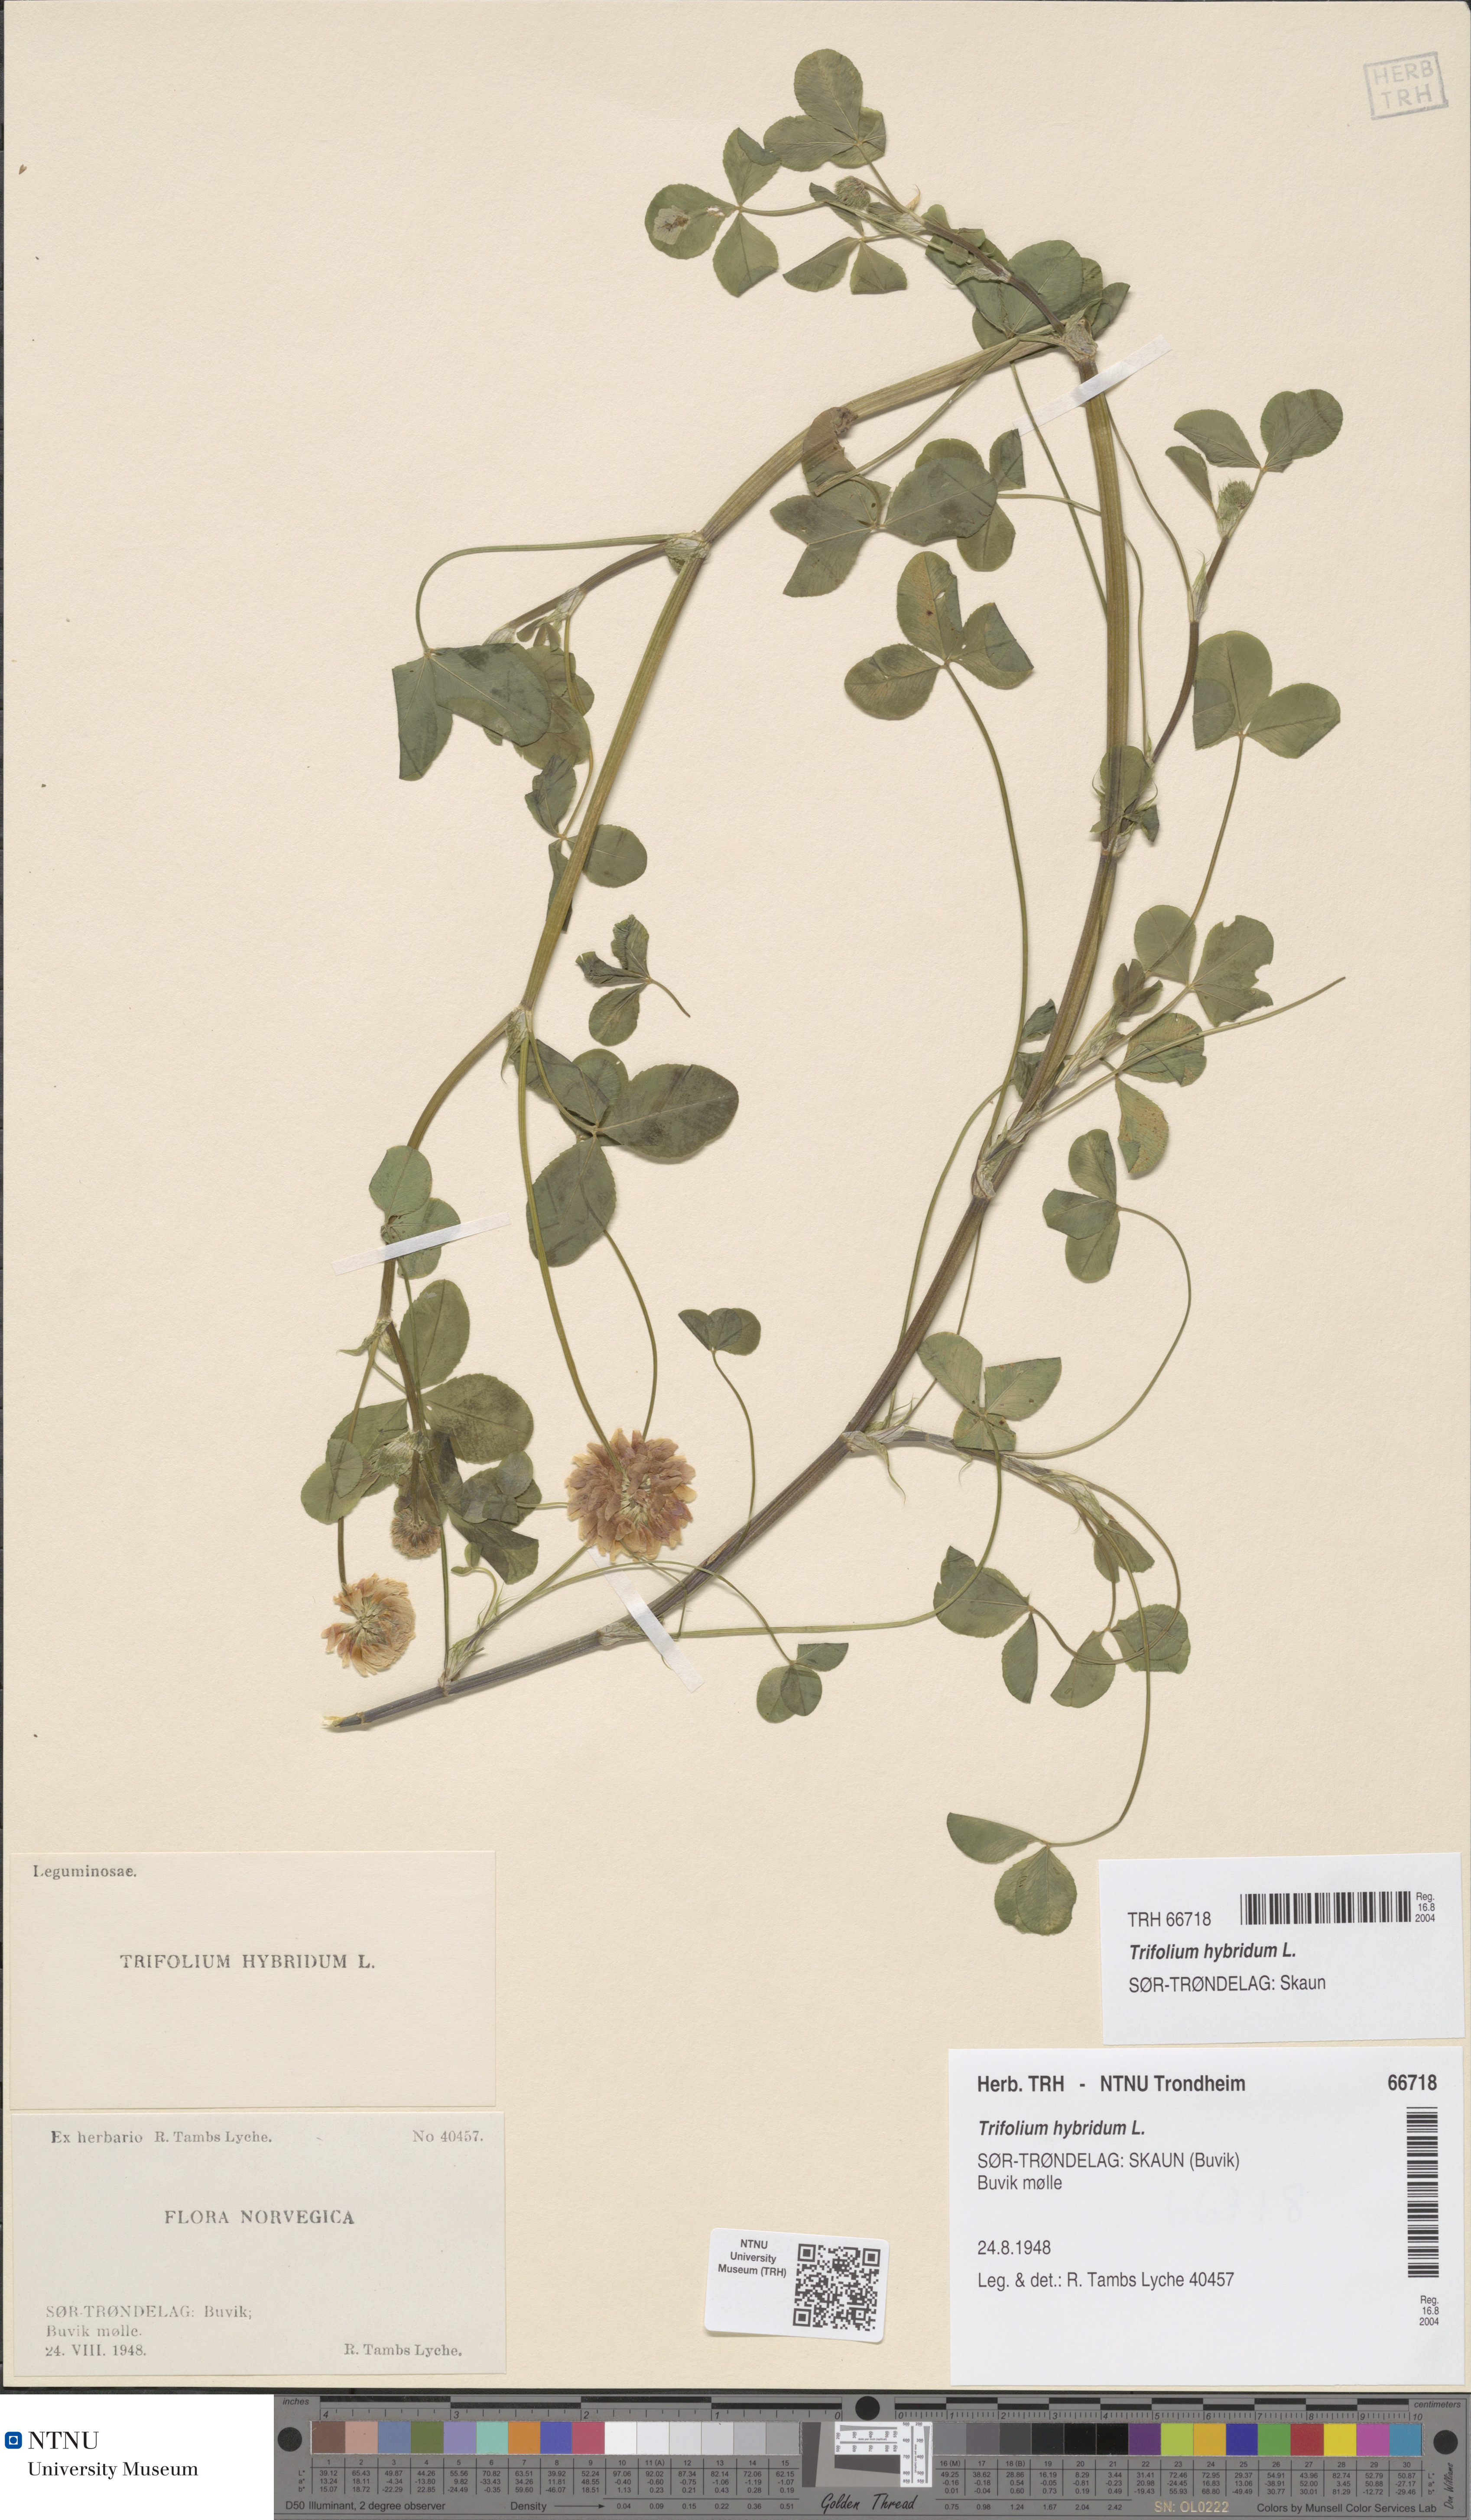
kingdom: Plantae
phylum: Tracheophyta
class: Magnoliopsida
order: Fabales
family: Fabaceae
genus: Trifolium
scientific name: Trifolium hybridum
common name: Alsike clover
